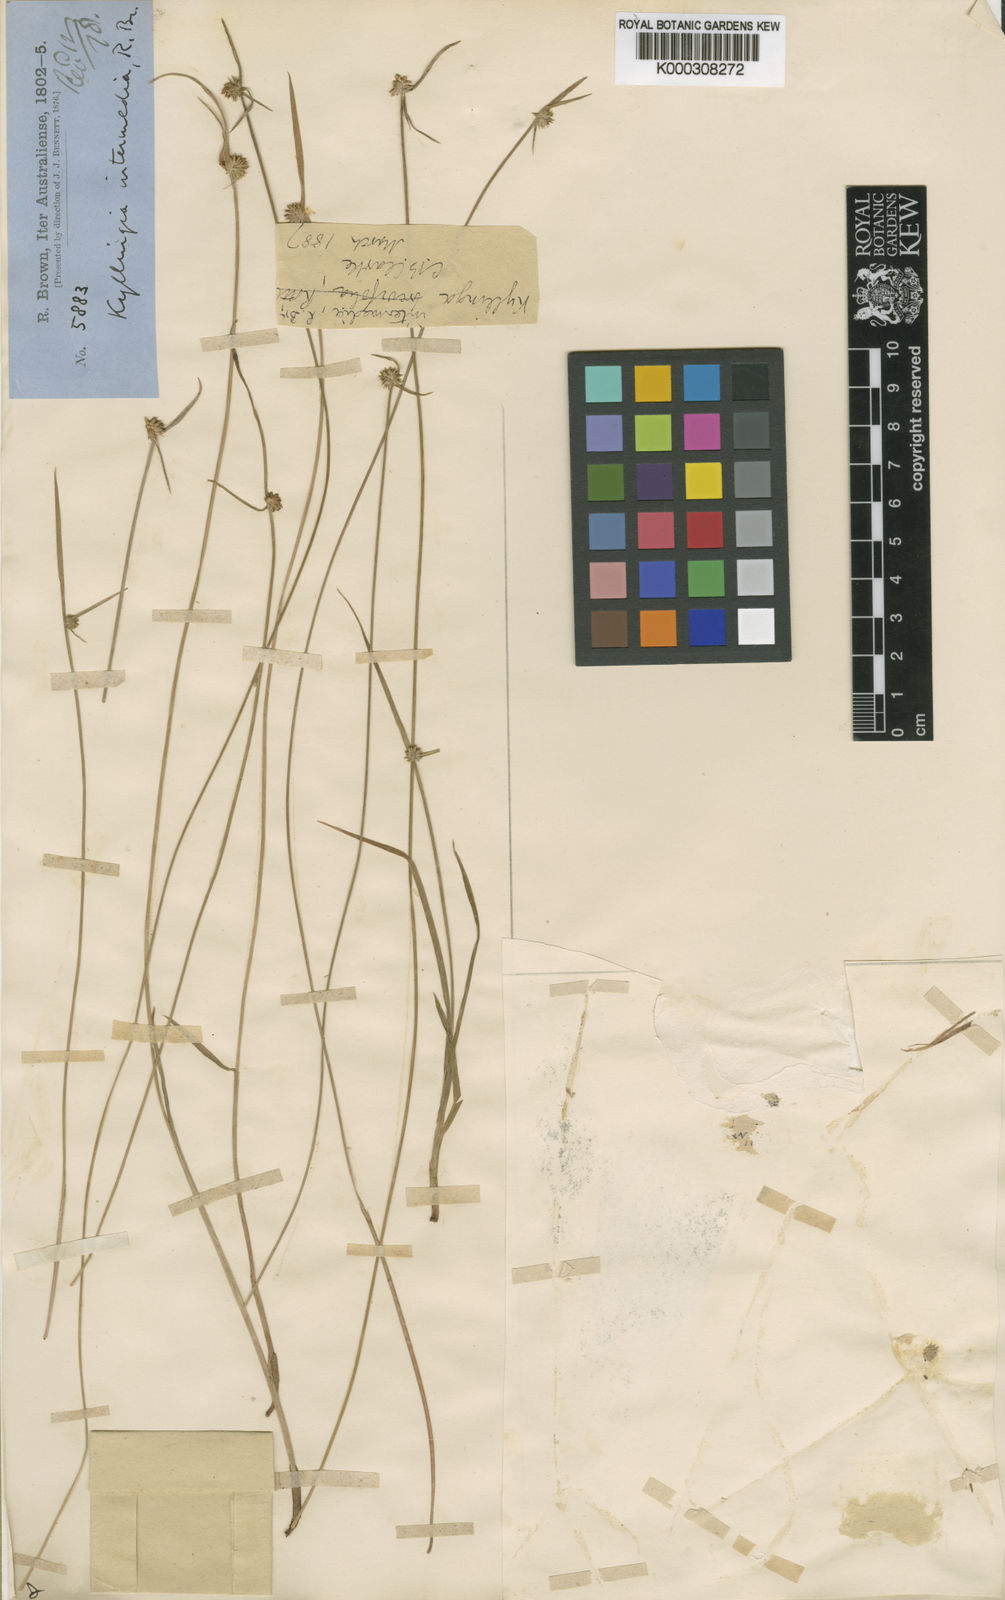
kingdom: Plantae
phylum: Tracheophyta
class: Liliopsida
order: Poales
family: Cyperaceae
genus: Cyperus
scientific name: Cyperus brevifolius
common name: Globe kyllinga
